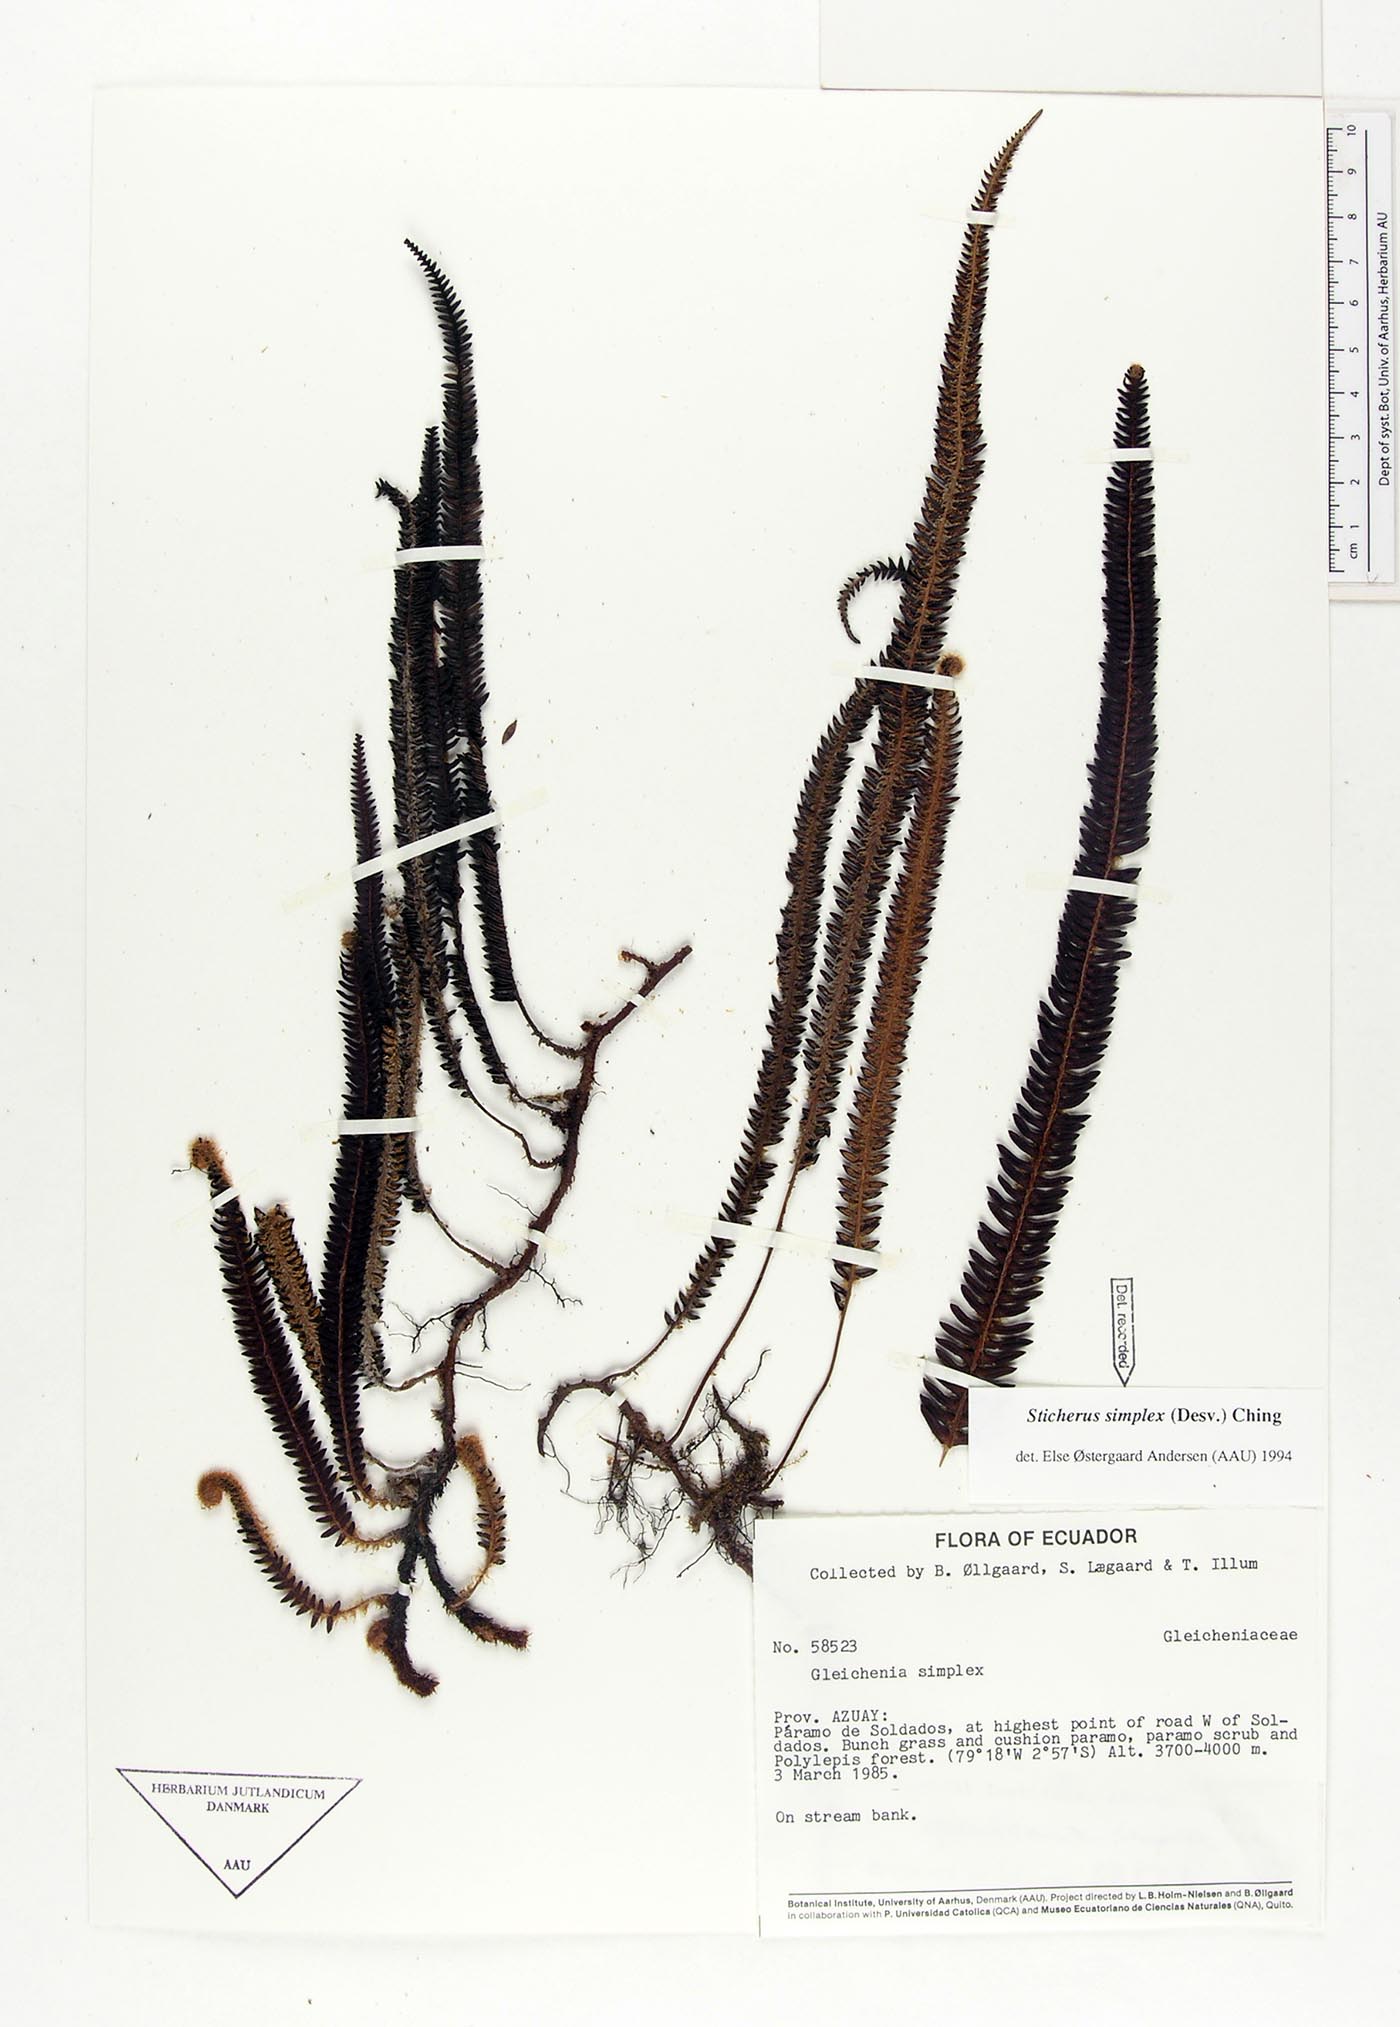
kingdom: Plantae
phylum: Tracheophyta
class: Polypodiopsida
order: Gleicheniales
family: Gleicheniaceae
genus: Sticherus
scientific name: Sticherus simplex
